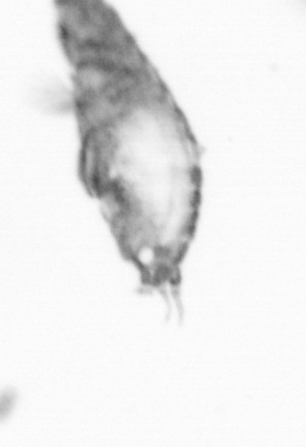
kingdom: Animalia
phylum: Annelida
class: Polychaeta
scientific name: Polychaeta
